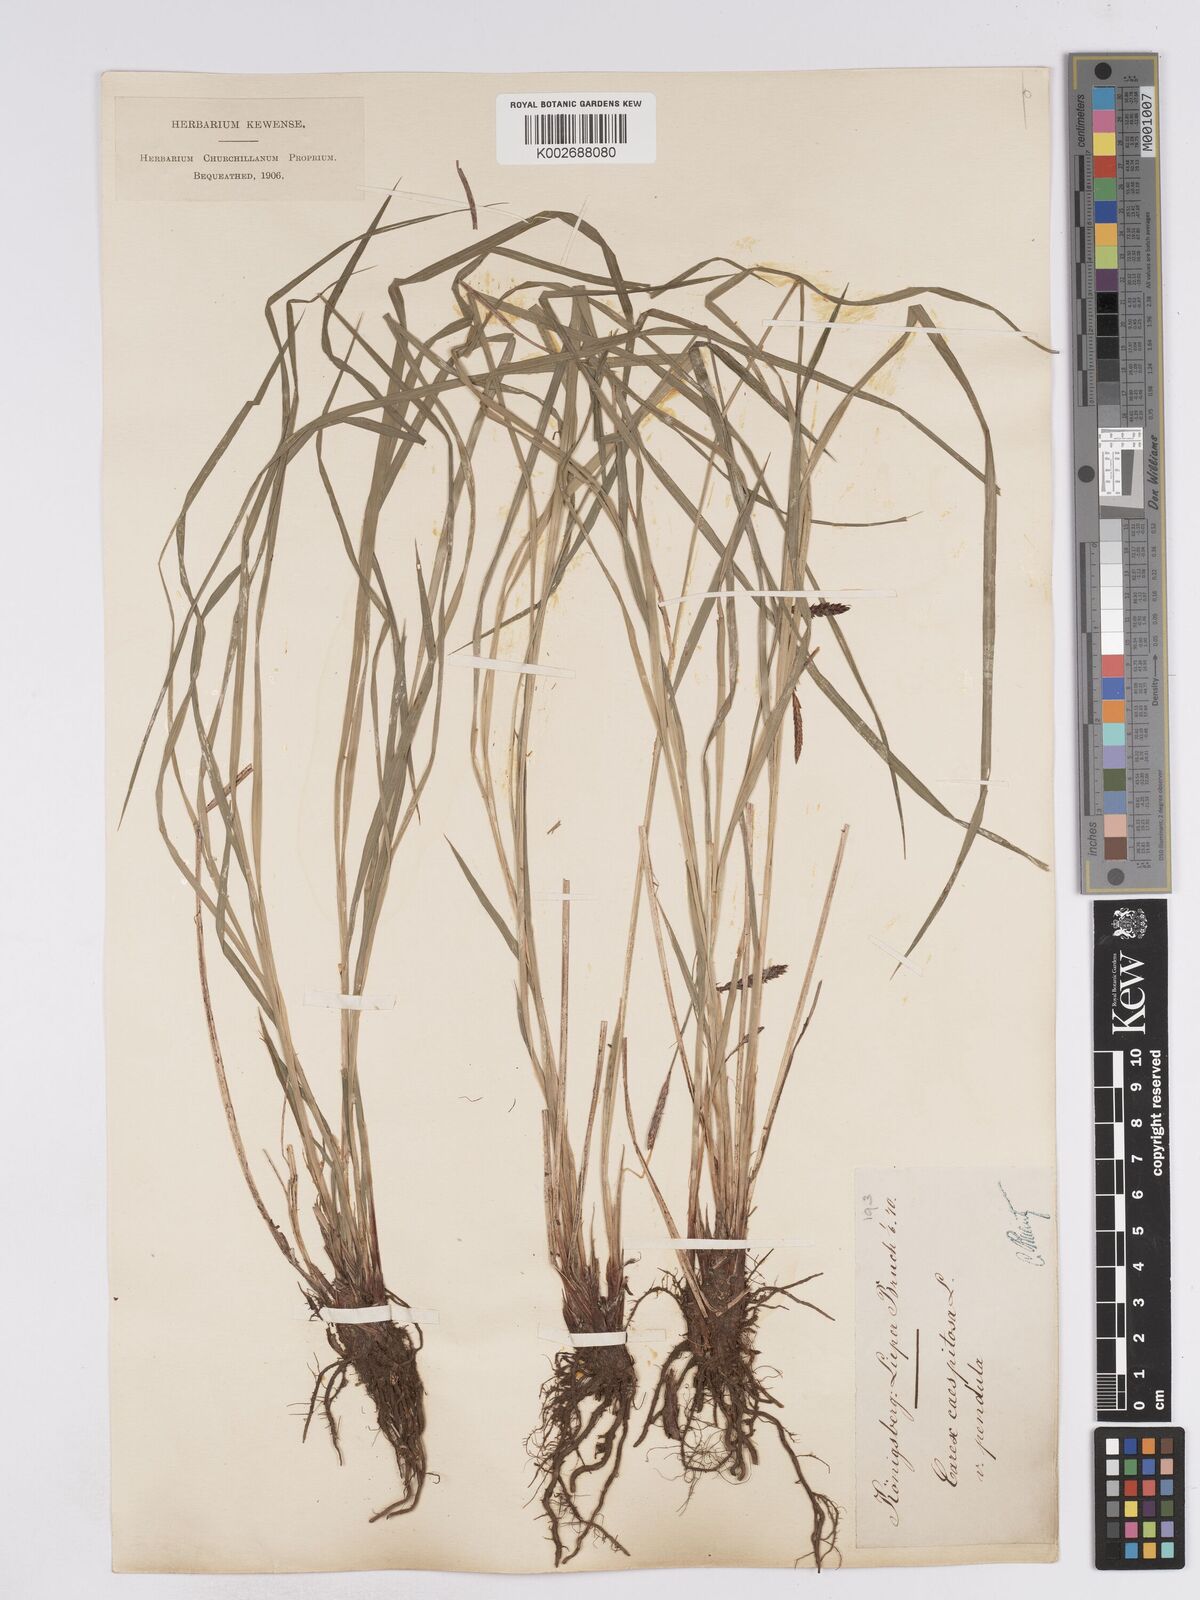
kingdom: Plantae
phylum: Tracheophyta
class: Liliopsida
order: Poales
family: Cyperaceae
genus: Carex
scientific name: Carex
